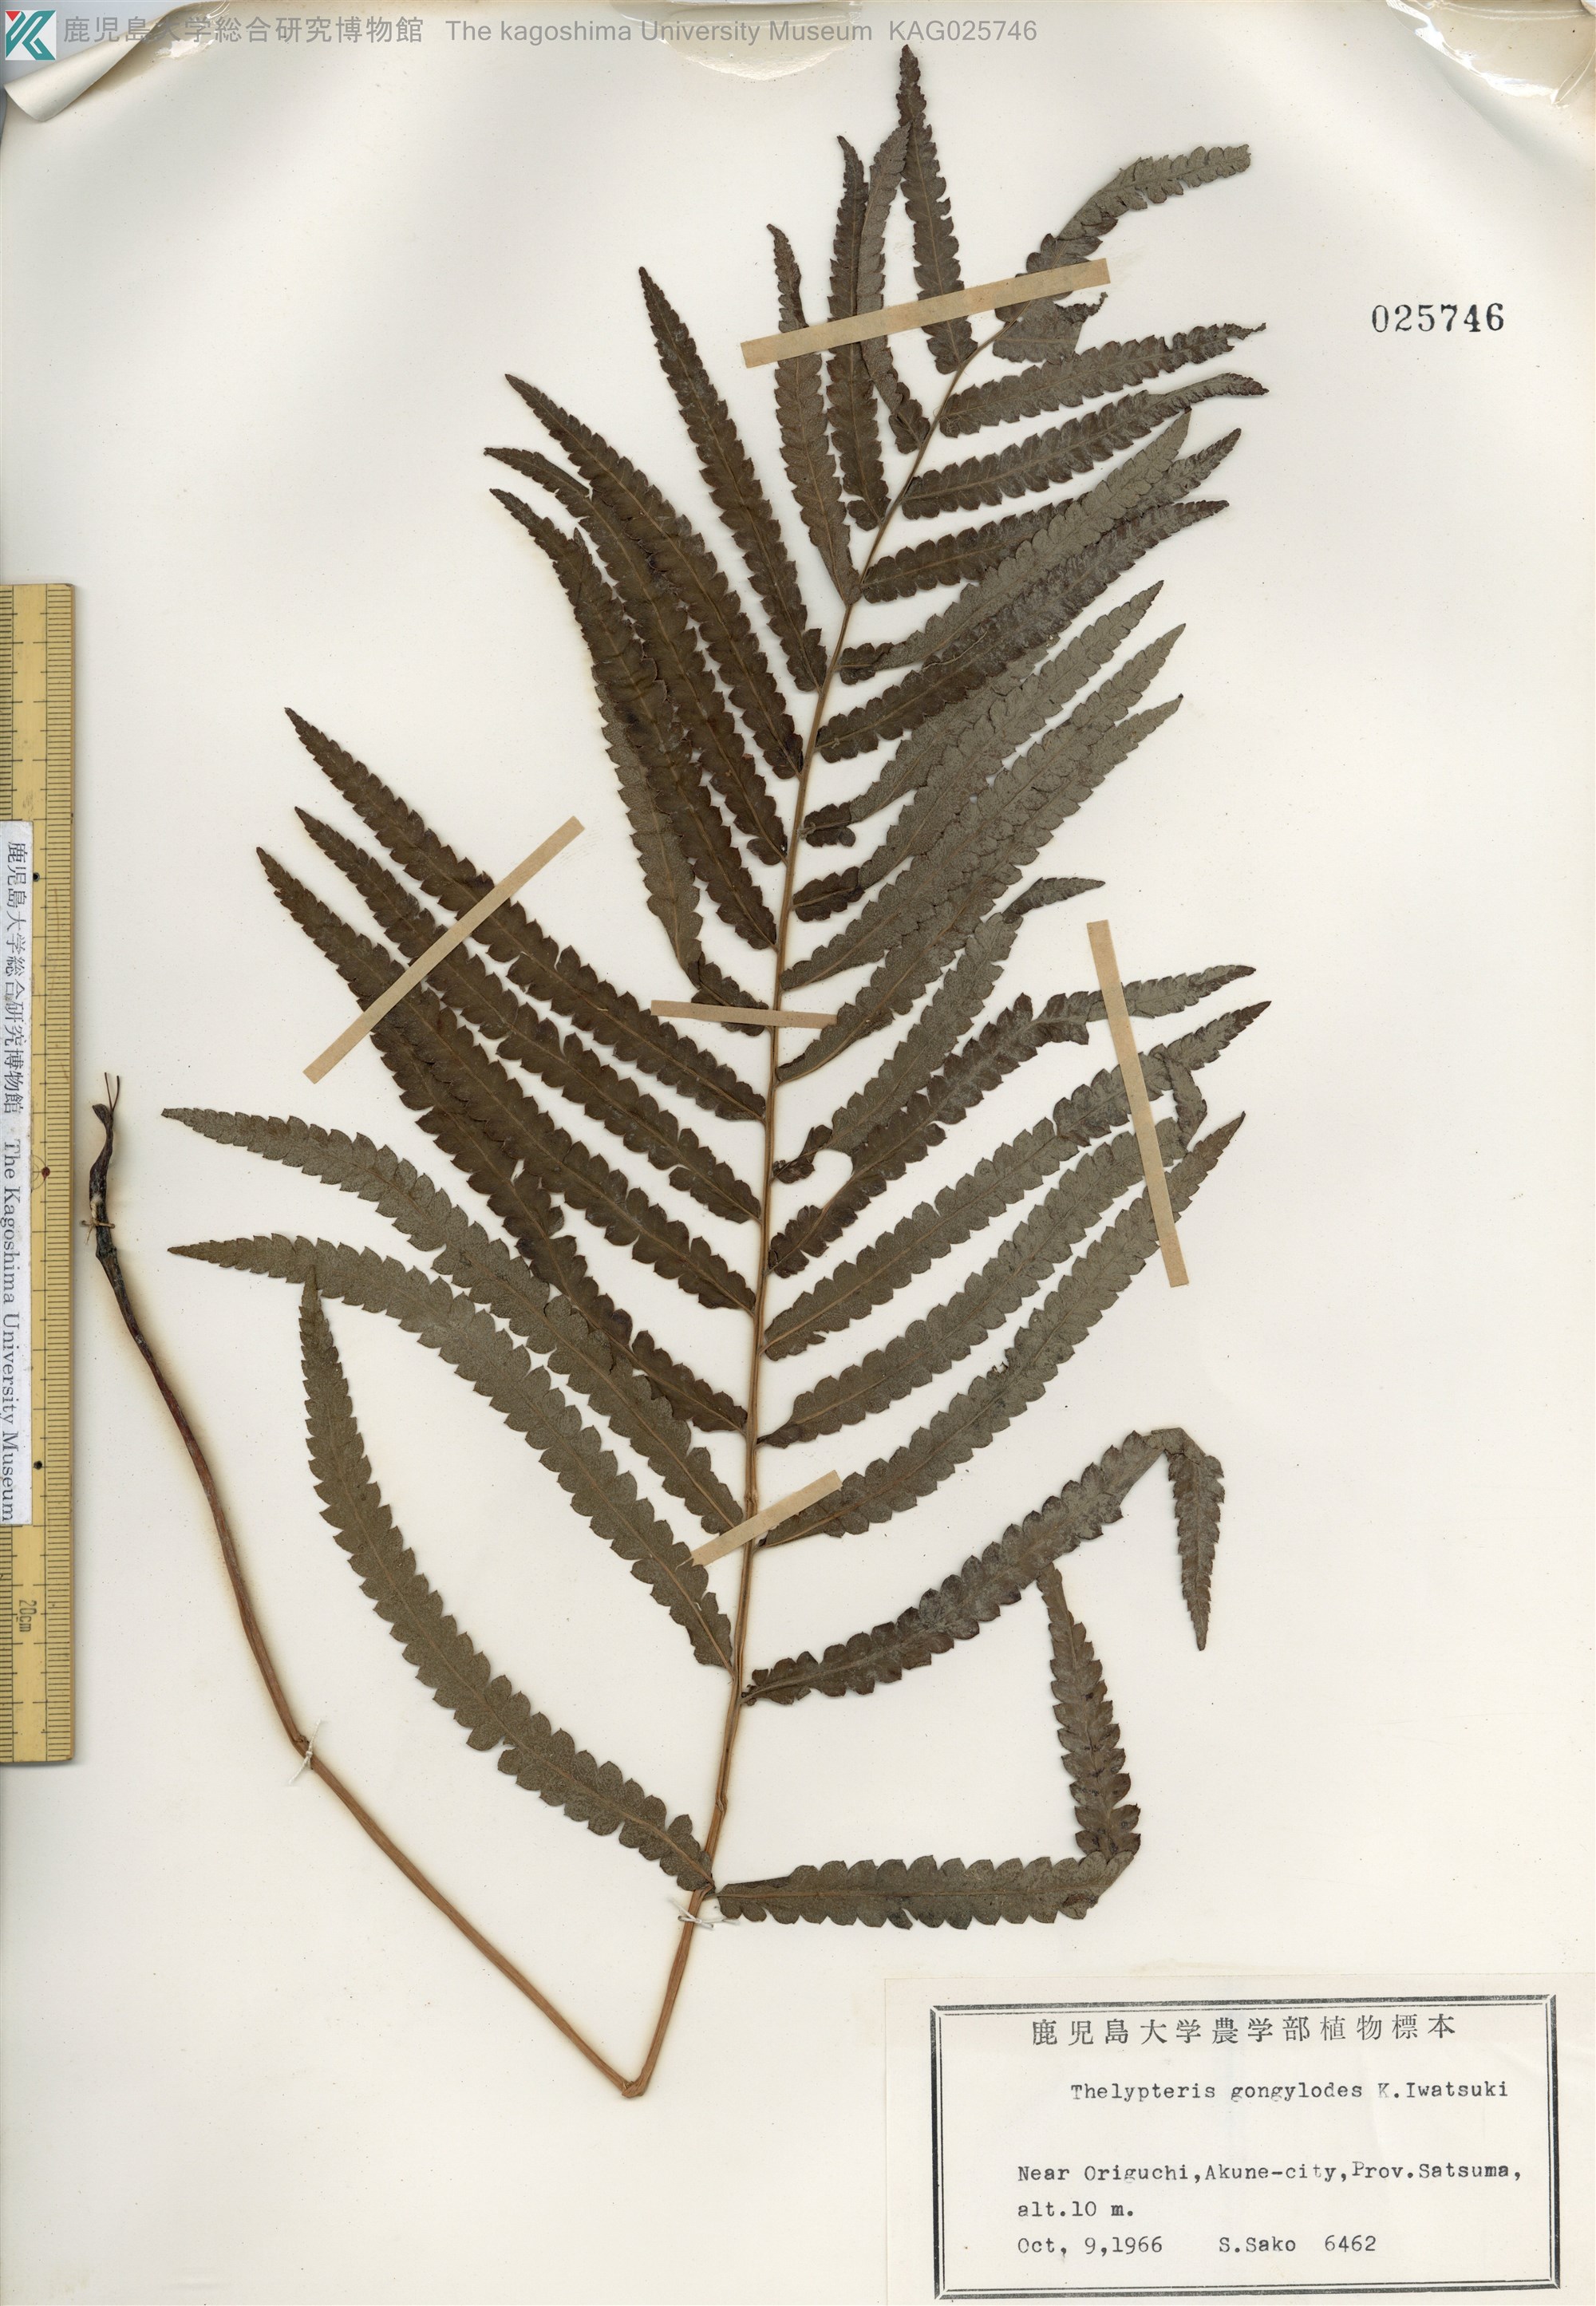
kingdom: Plantae
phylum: Tracheophyta
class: Polypodiopsida
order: Polypodiales
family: Thelypteridaceae
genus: Cyclosorus
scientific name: Cyclosorus interruptus
